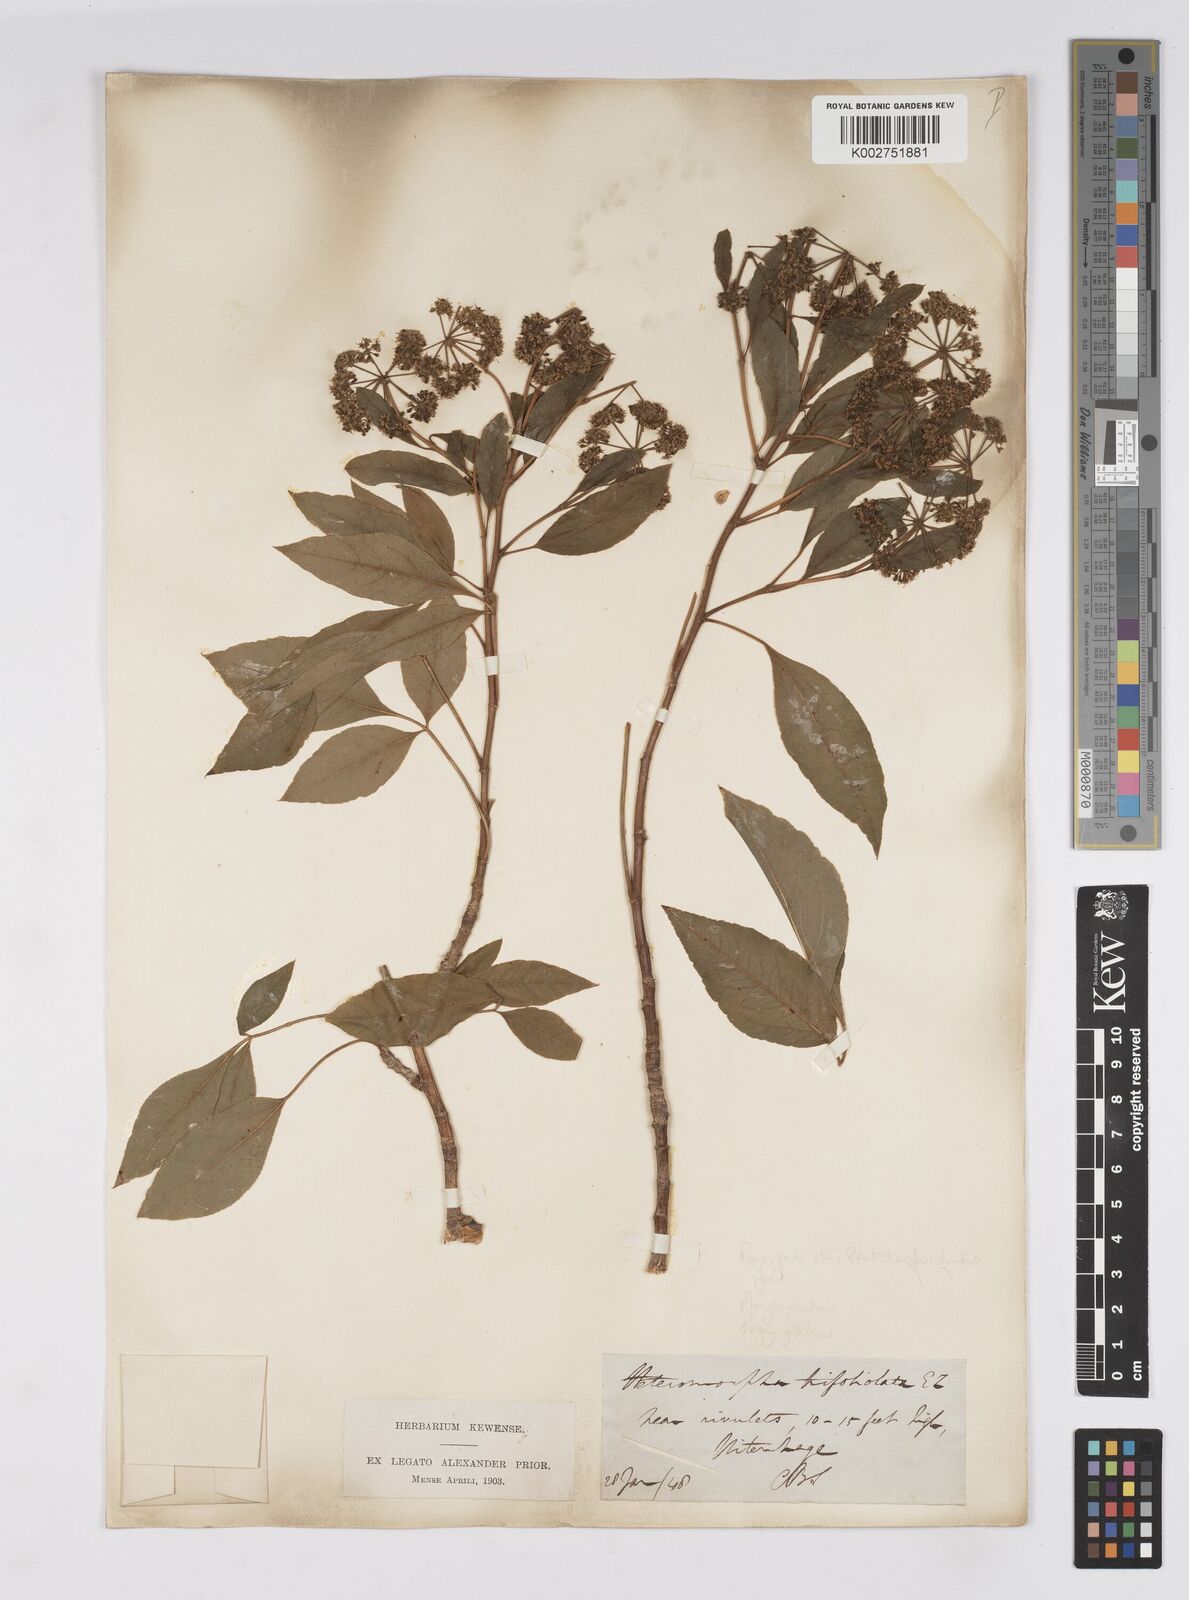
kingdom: Plantae
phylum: Tracheophyta
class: Magnoliopsida
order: Apiales
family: Apiaceae
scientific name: Apiaceae
